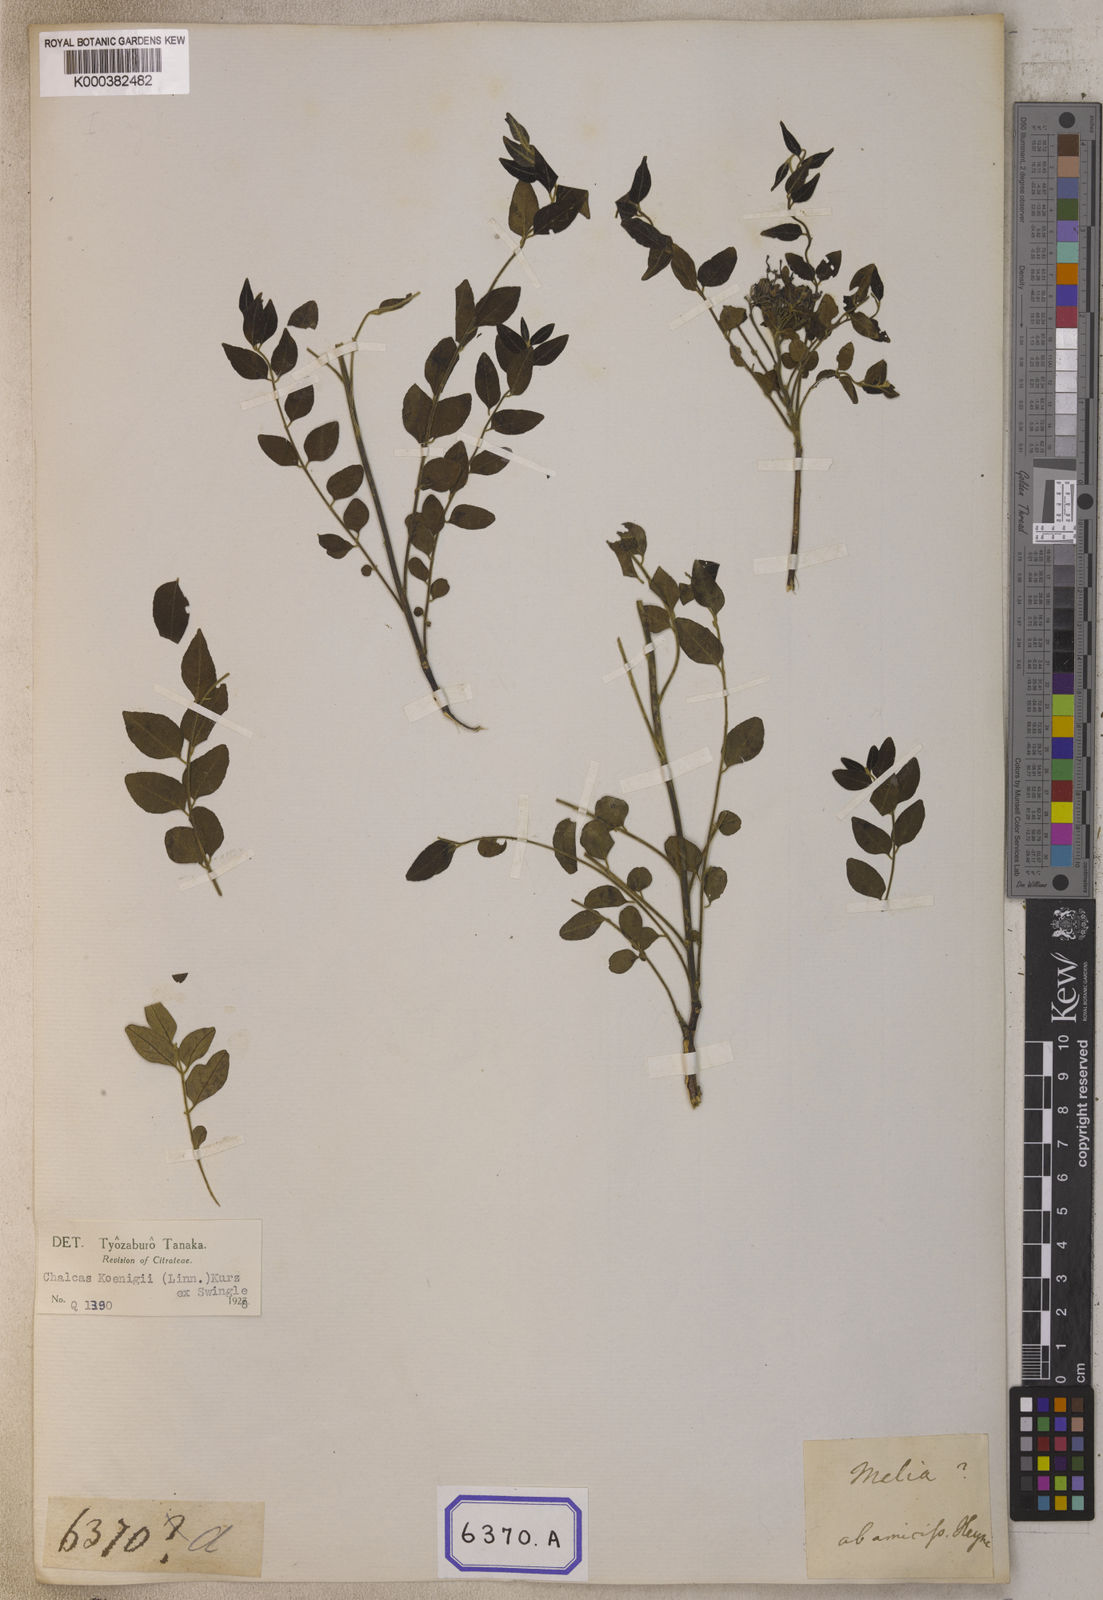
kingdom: Plantae
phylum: Tracheophyta
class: Magnoliopsida
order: Sapindales
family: Rutaceae
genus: Murraya
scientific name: Murraya koenigii
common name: Curry-plant
